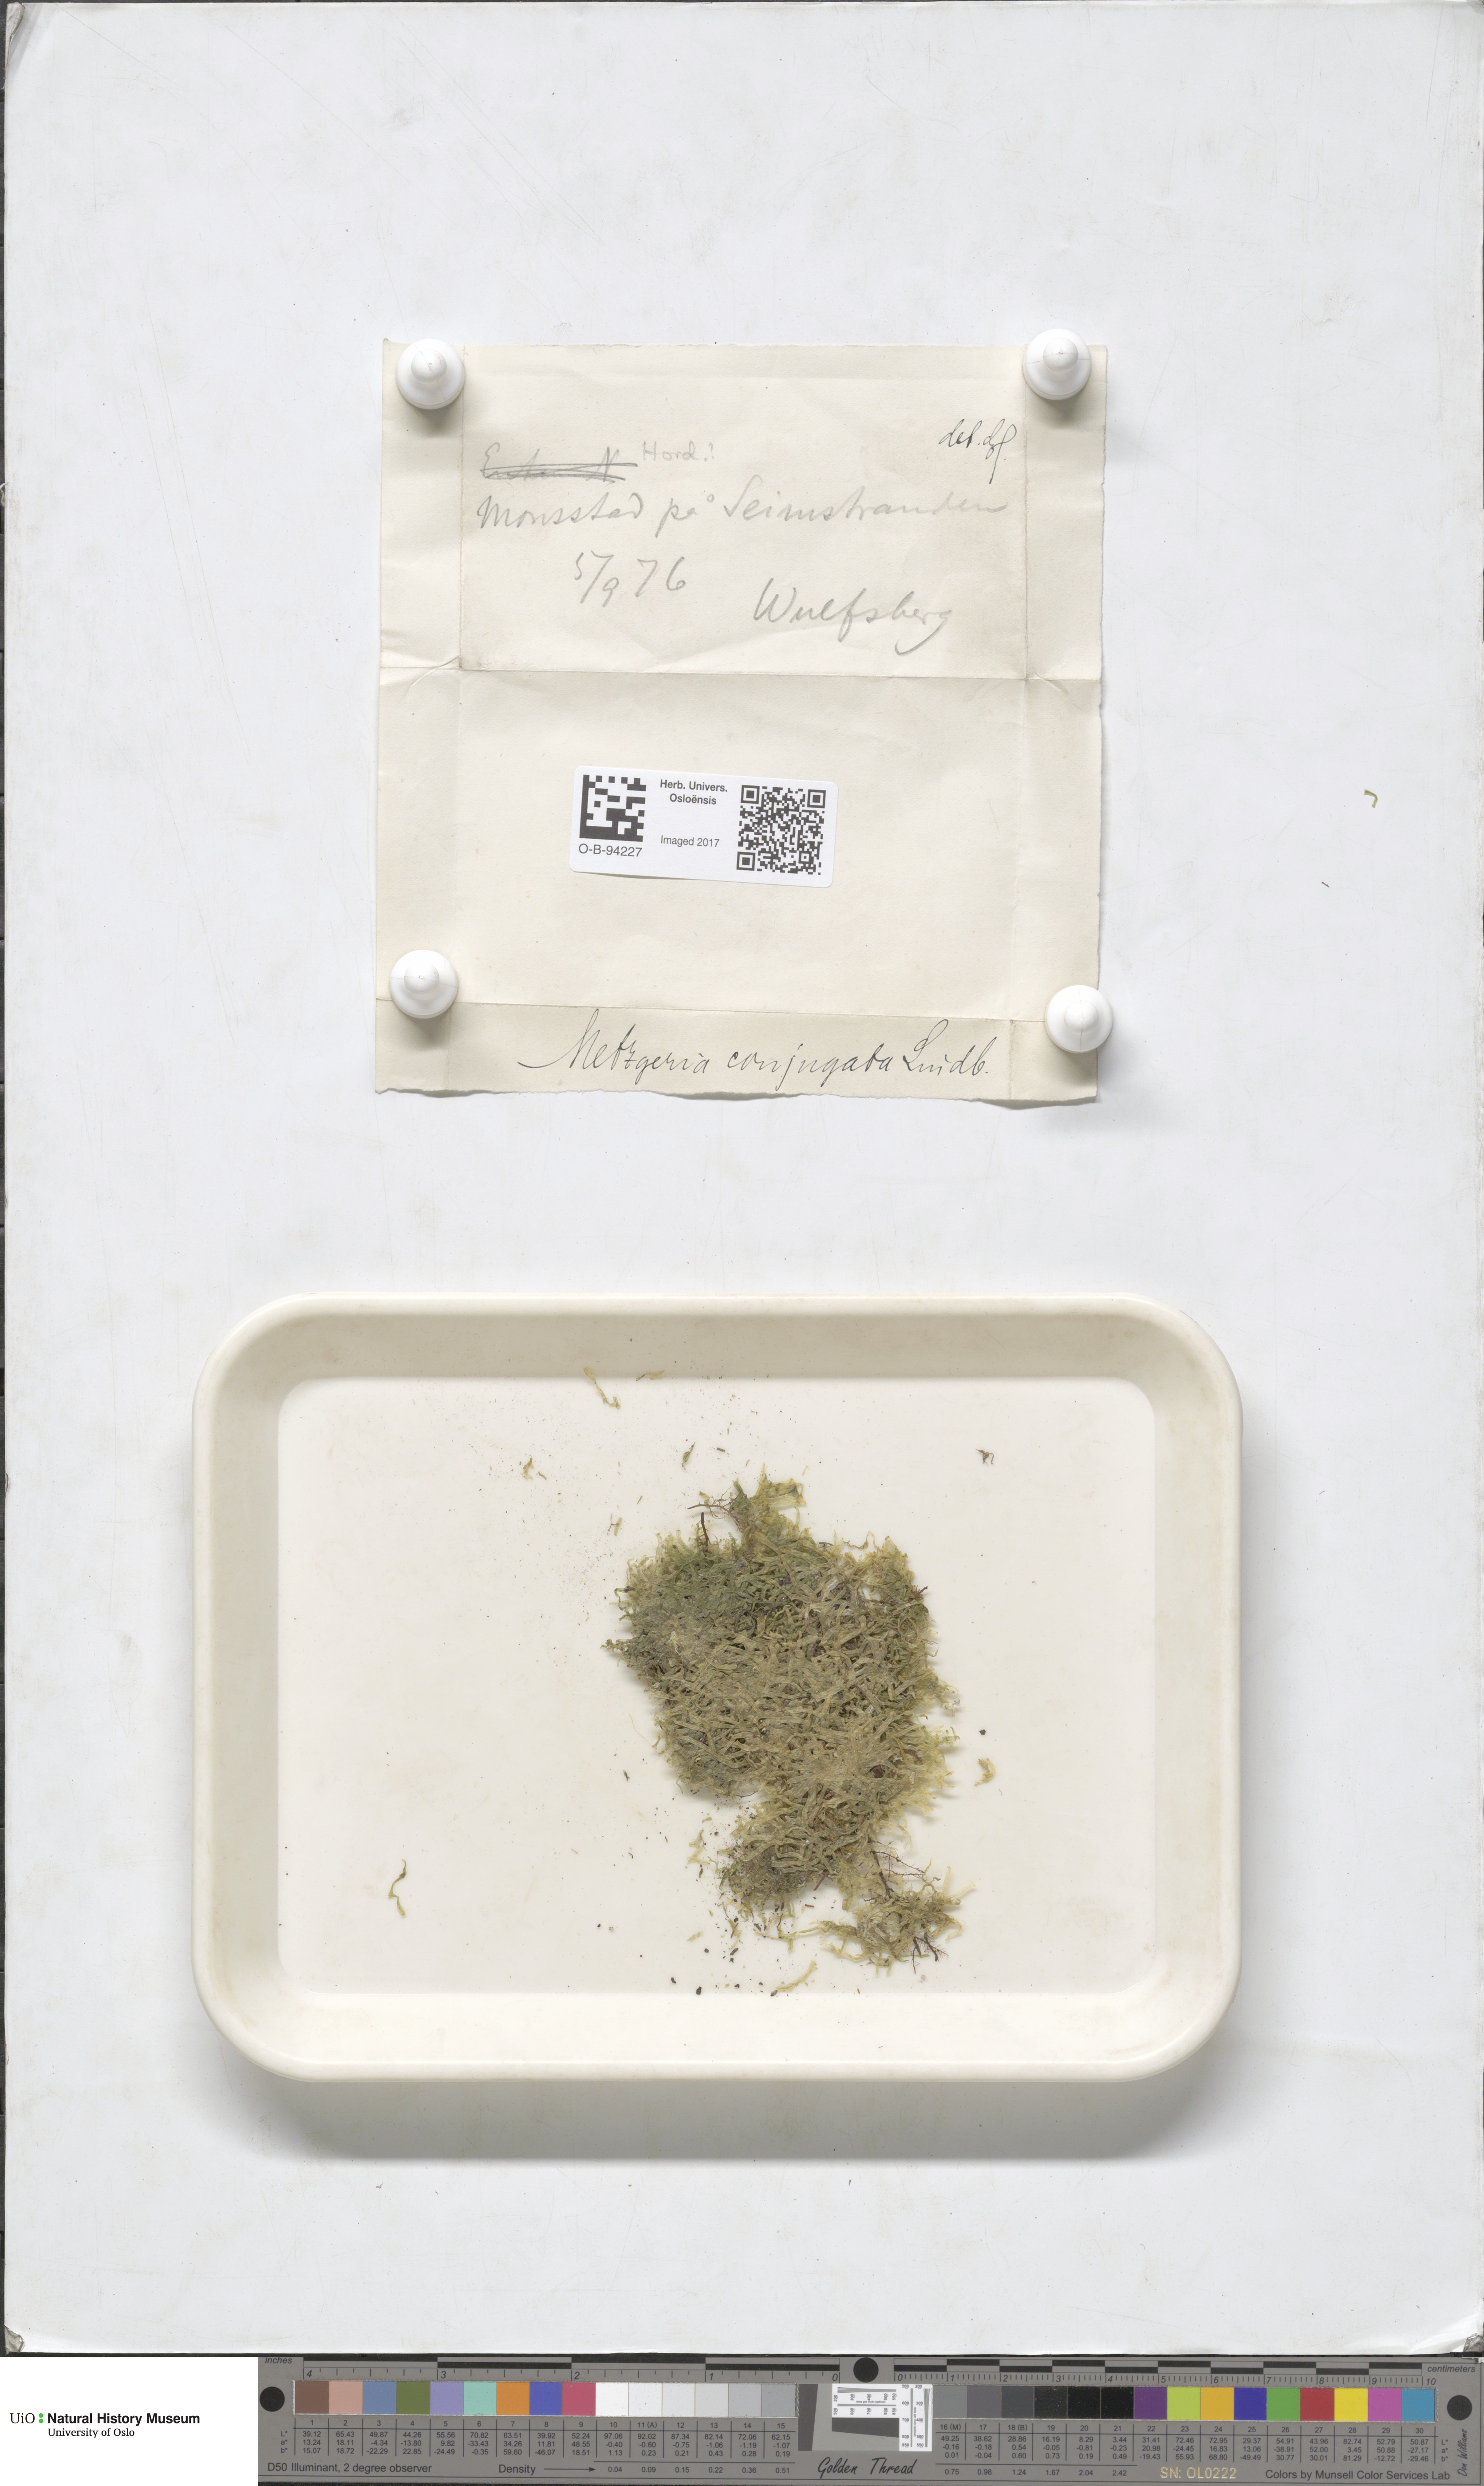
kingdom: Plantae
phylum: Marchantiophyta
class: Jungermanniopsida
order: Metzgeriales
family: Metzgeriaceae
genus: Metzgeria
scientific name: Metzgeria conjugata
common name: Rock veilwort
